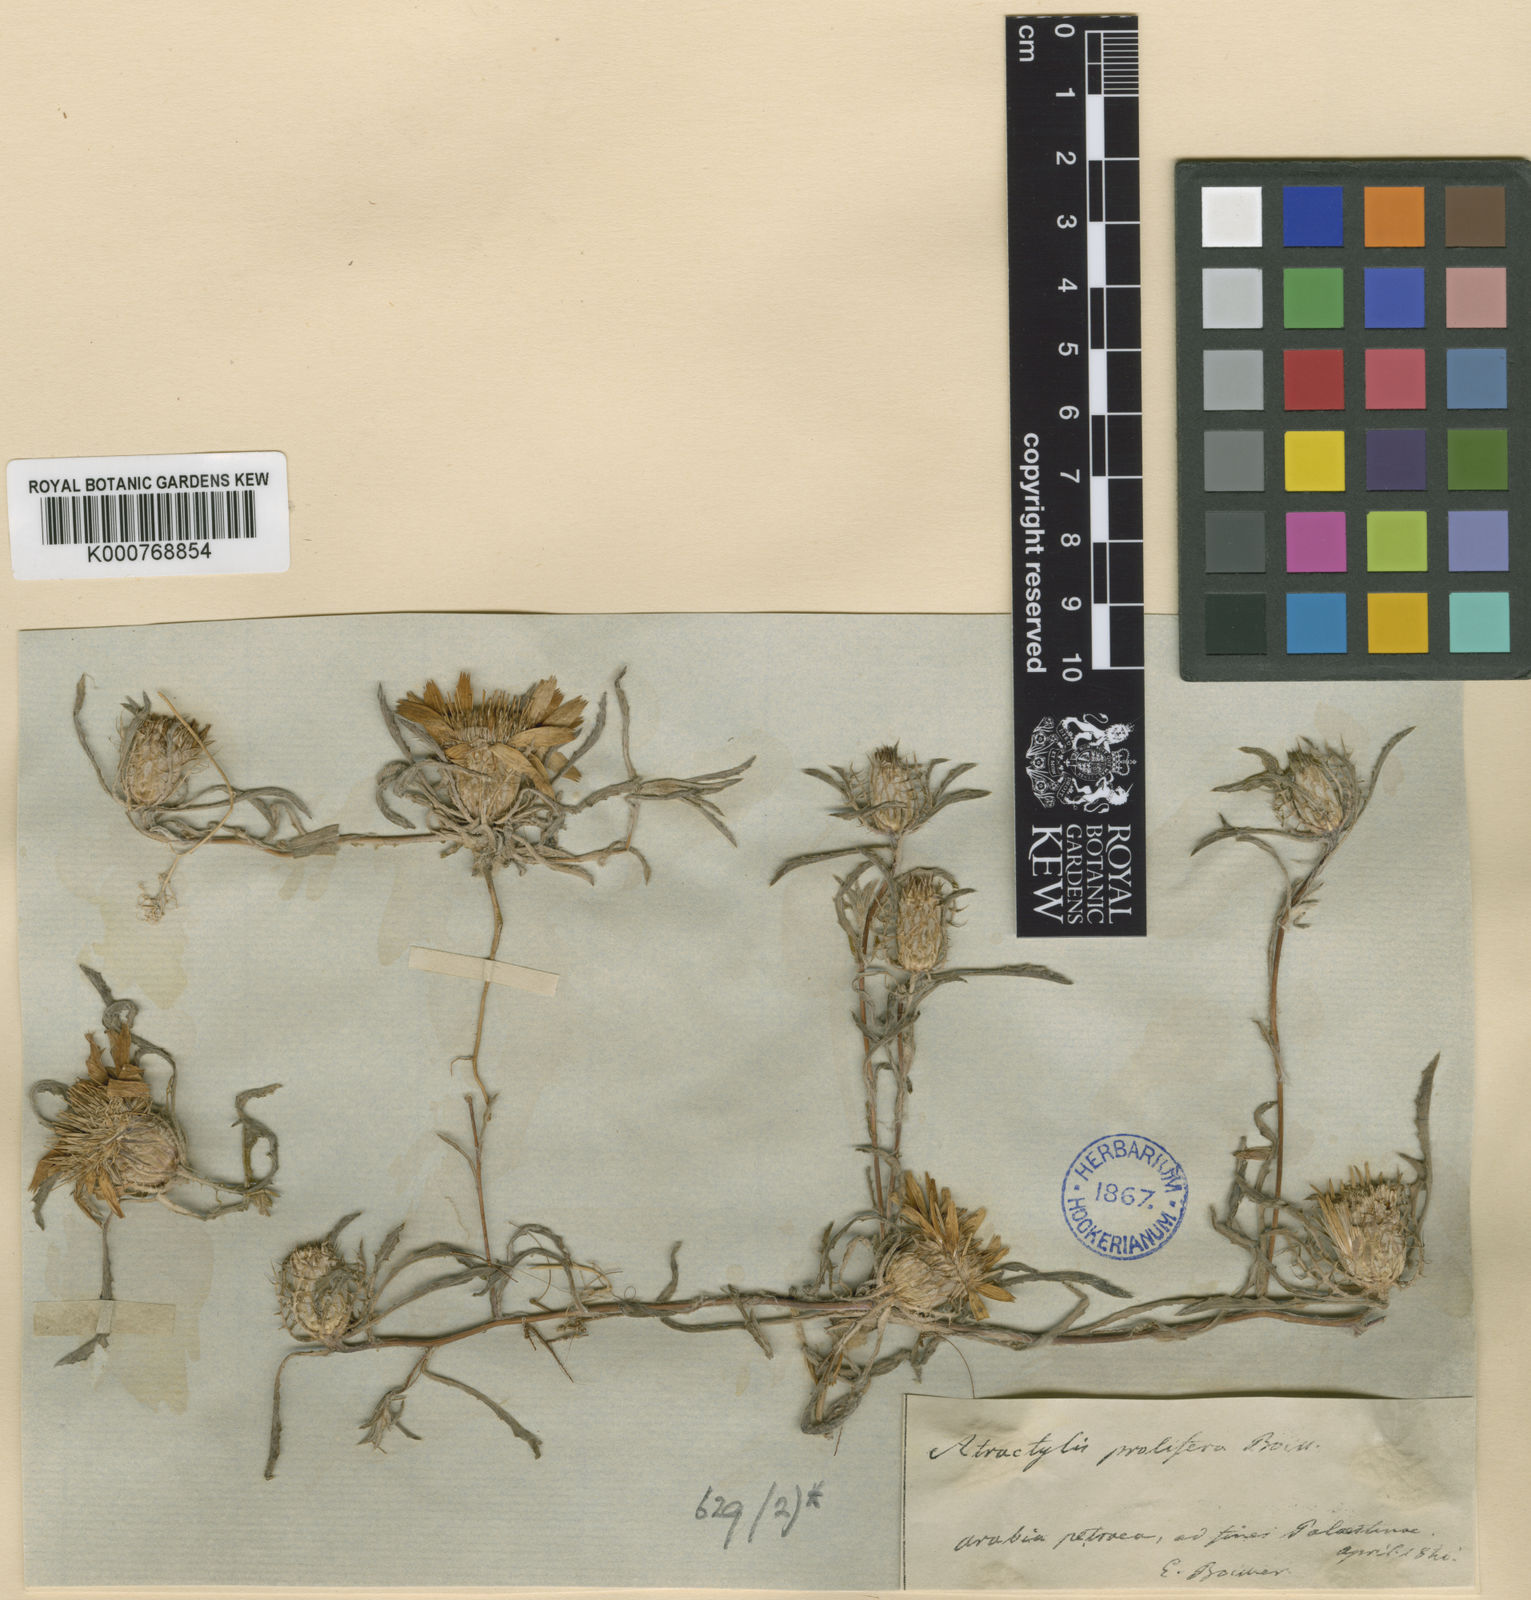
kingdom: Plantae
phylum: Tracheophyta
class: Magnoliopsida
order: Asterales
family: Asteraceae
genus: Atractylis
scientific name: Atractylis prolifera
